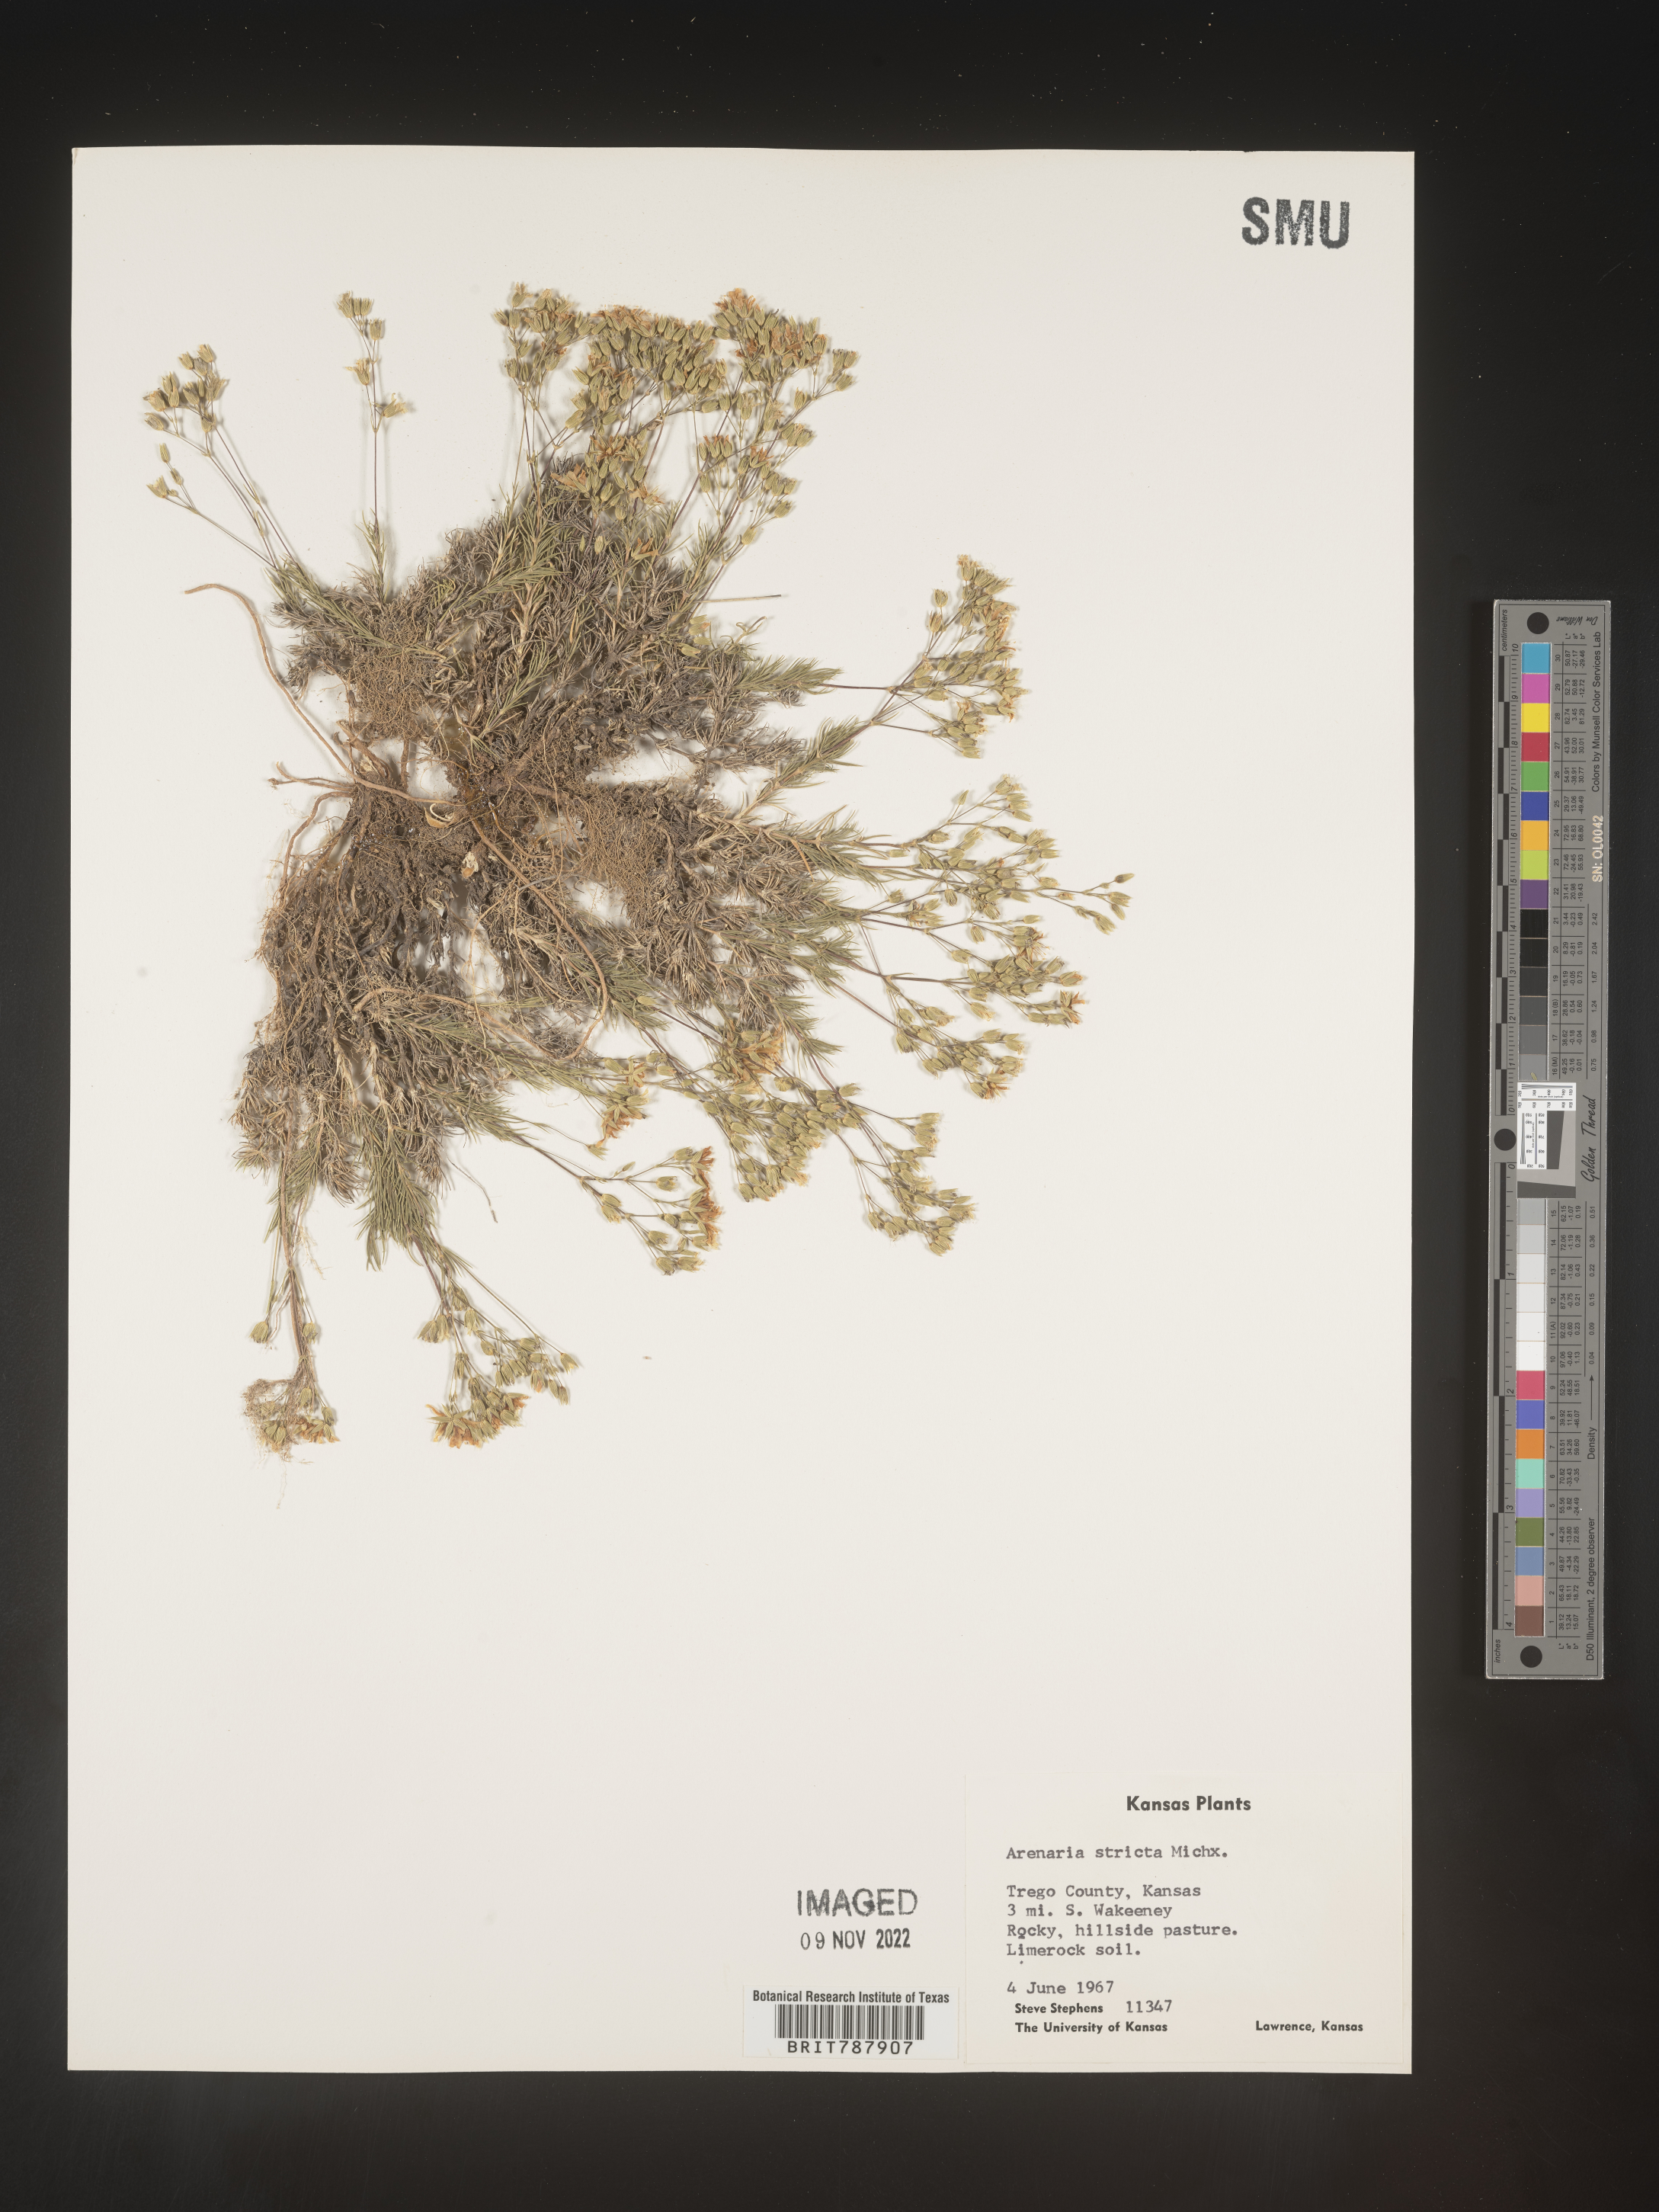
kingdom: Plantae
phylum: Tracheophyta
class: Magnoliopsida
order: Caryophyllales
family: Caryophyllaceae
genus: Sabulina
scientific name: Sabulina michauxii
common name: Michaux's stitchwort
